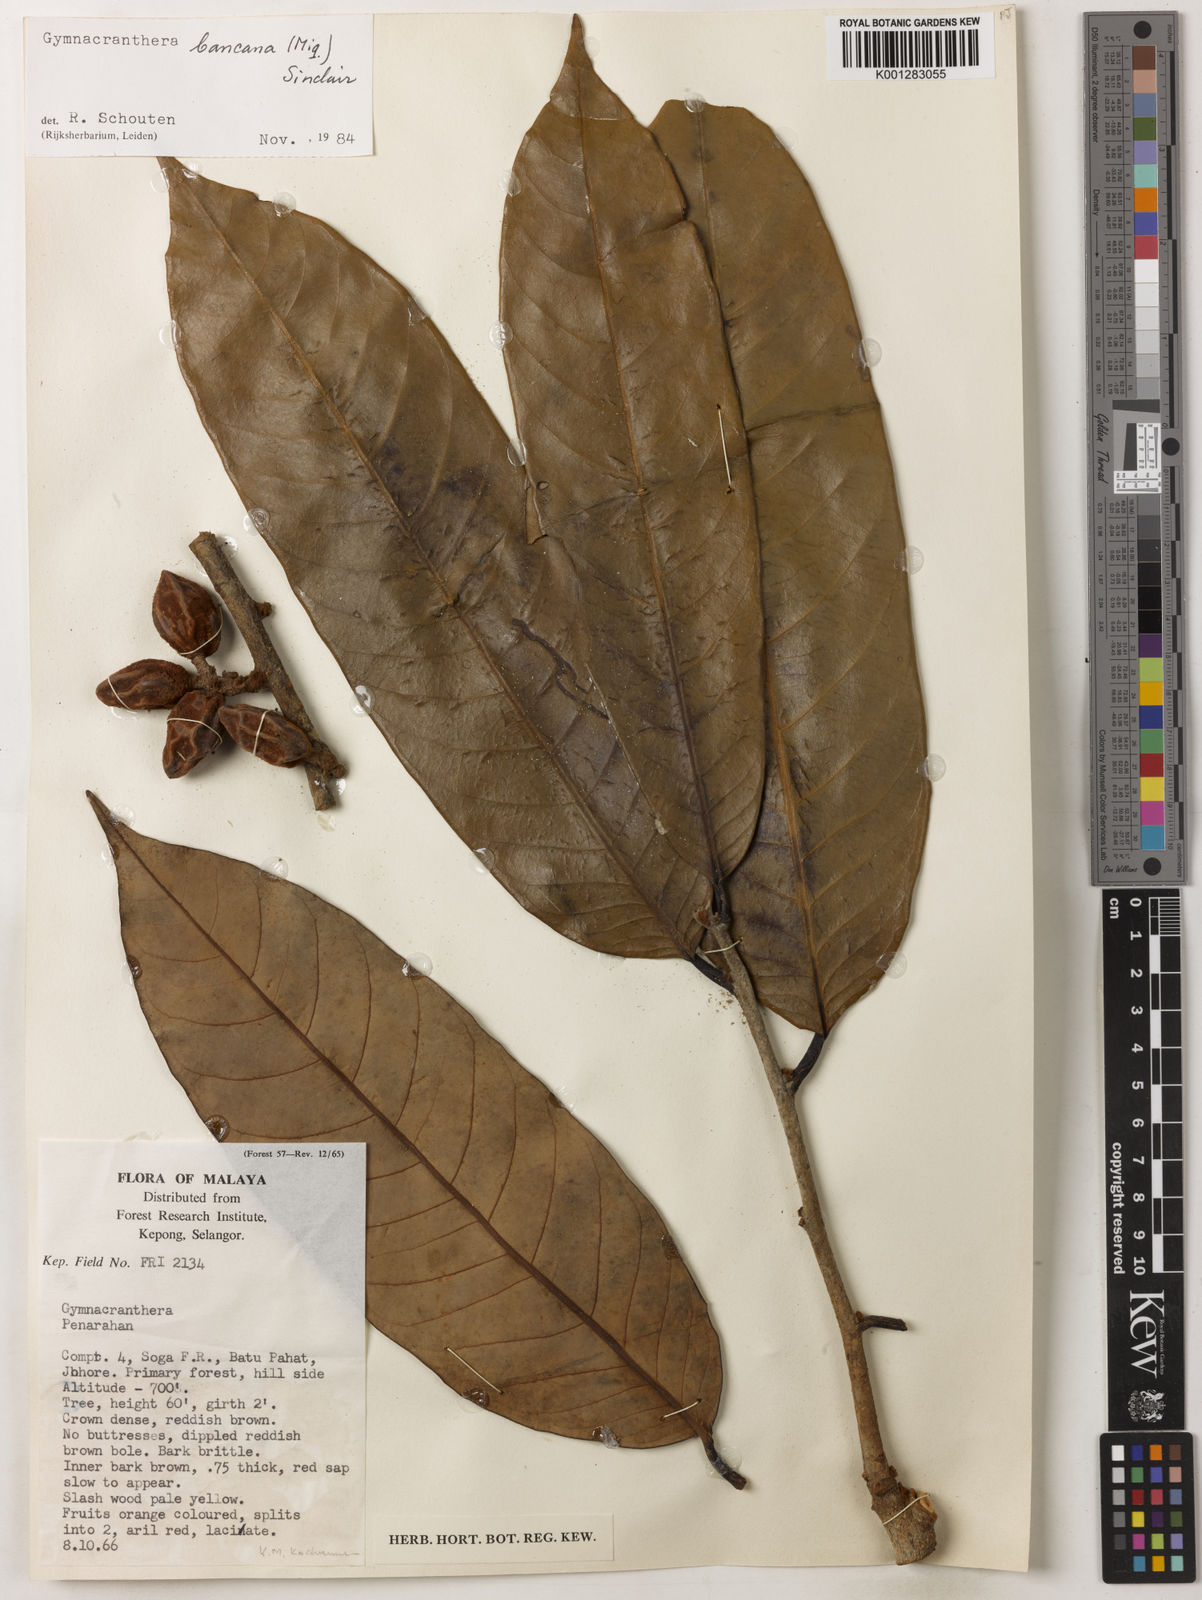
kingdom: Plantae
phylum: Tracheophyta
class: Magnoliopsida
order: Magnoliales
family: Myristicaceae
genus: Gymnacranthera
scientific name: Gymnacranthera bancana
